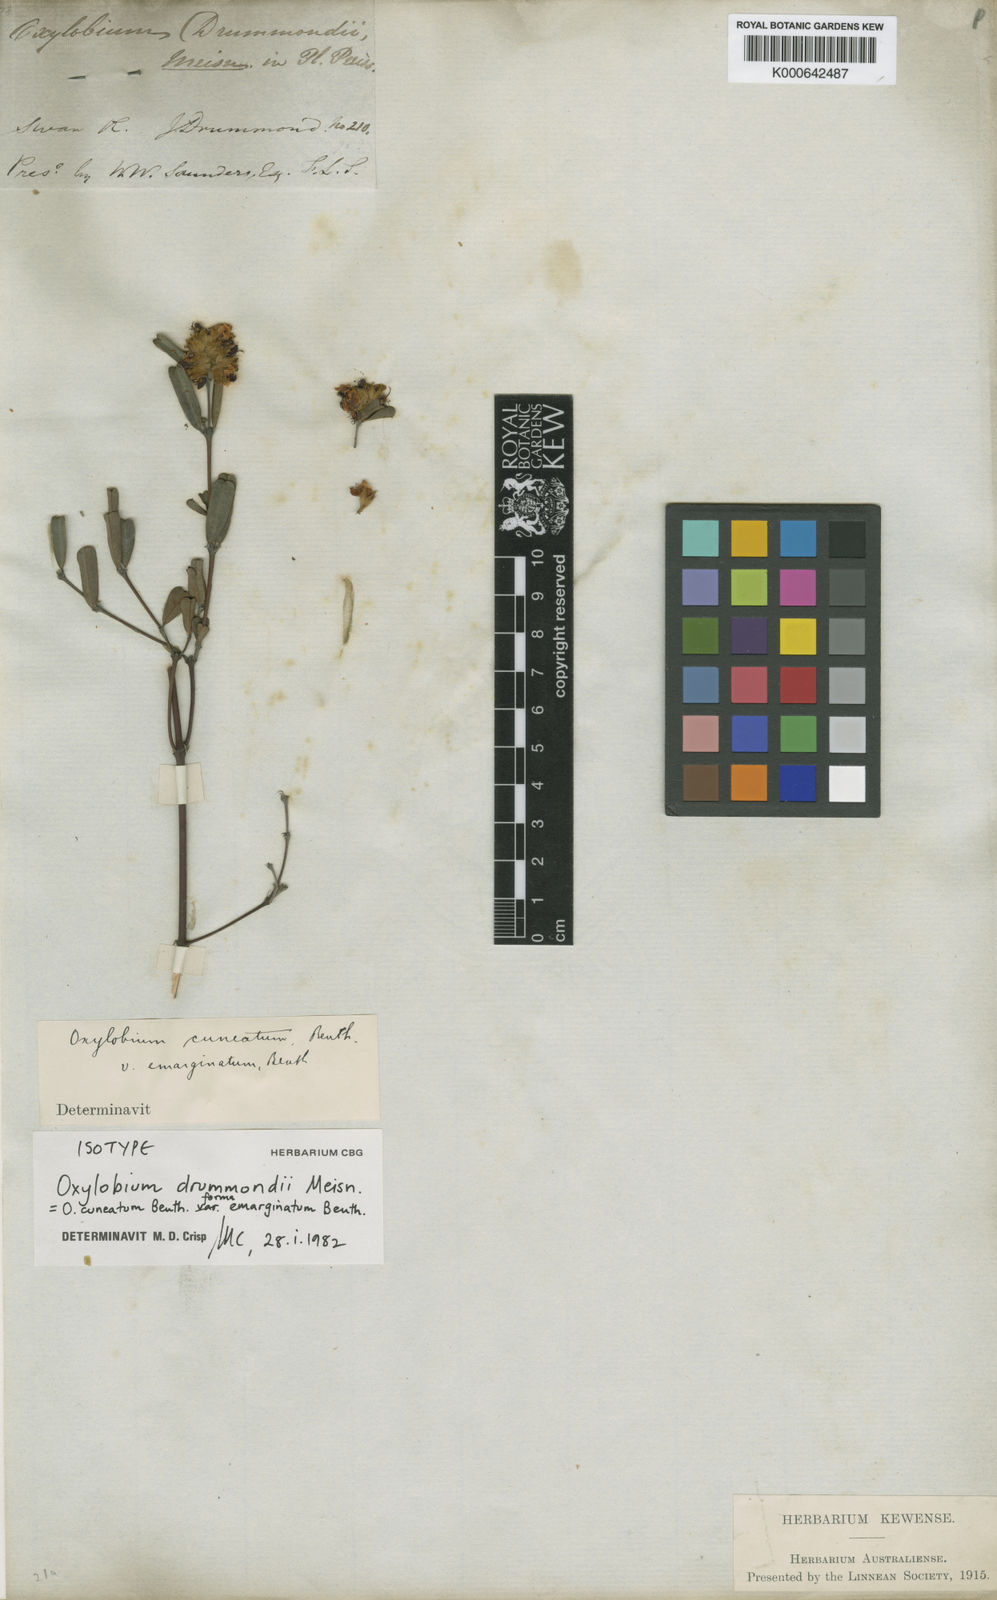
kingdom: Plantae
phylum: Tracheophyta
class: Magnoliopsida
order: Fabales
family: Fabaceae
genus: Gastrolobium
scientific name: Gastrolobium retusum
